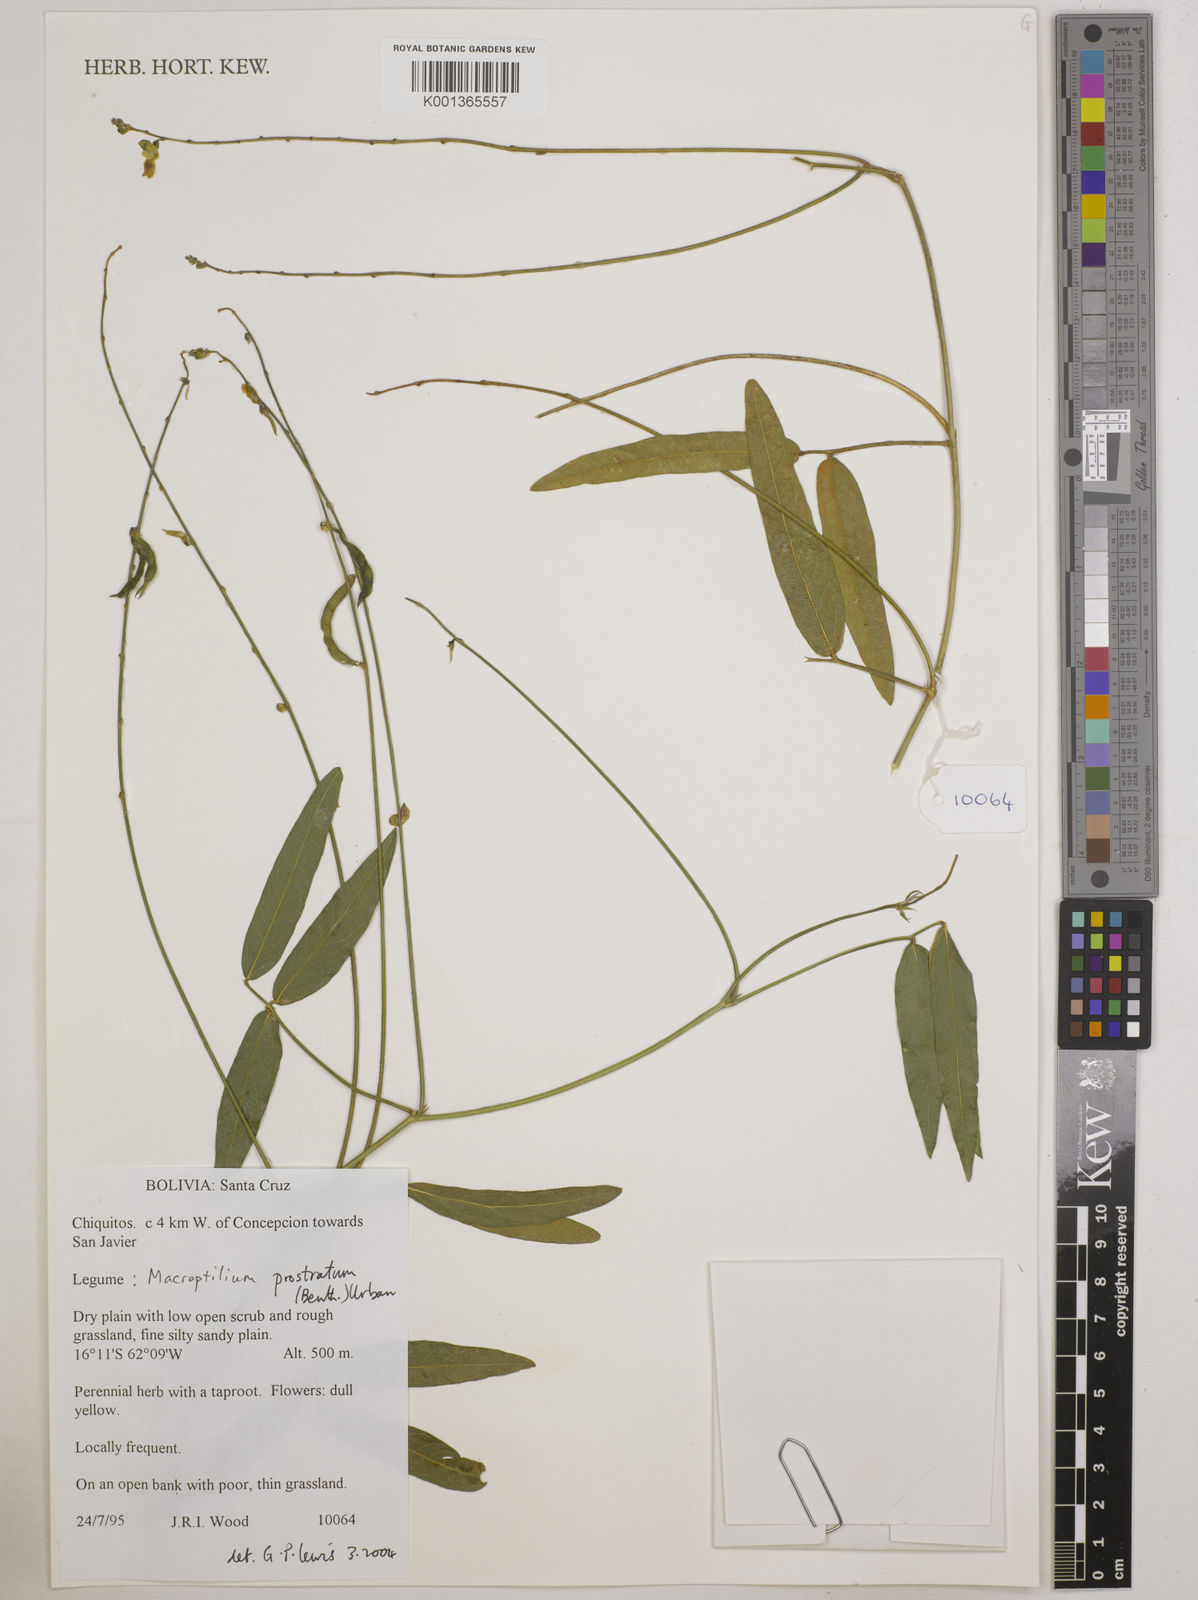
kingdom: Plantae
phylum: Tracheophyta
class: Magnoliopsida
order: Fabales
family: Fabaceae
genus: Macroptilium
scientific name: Macroptilium prostratum
